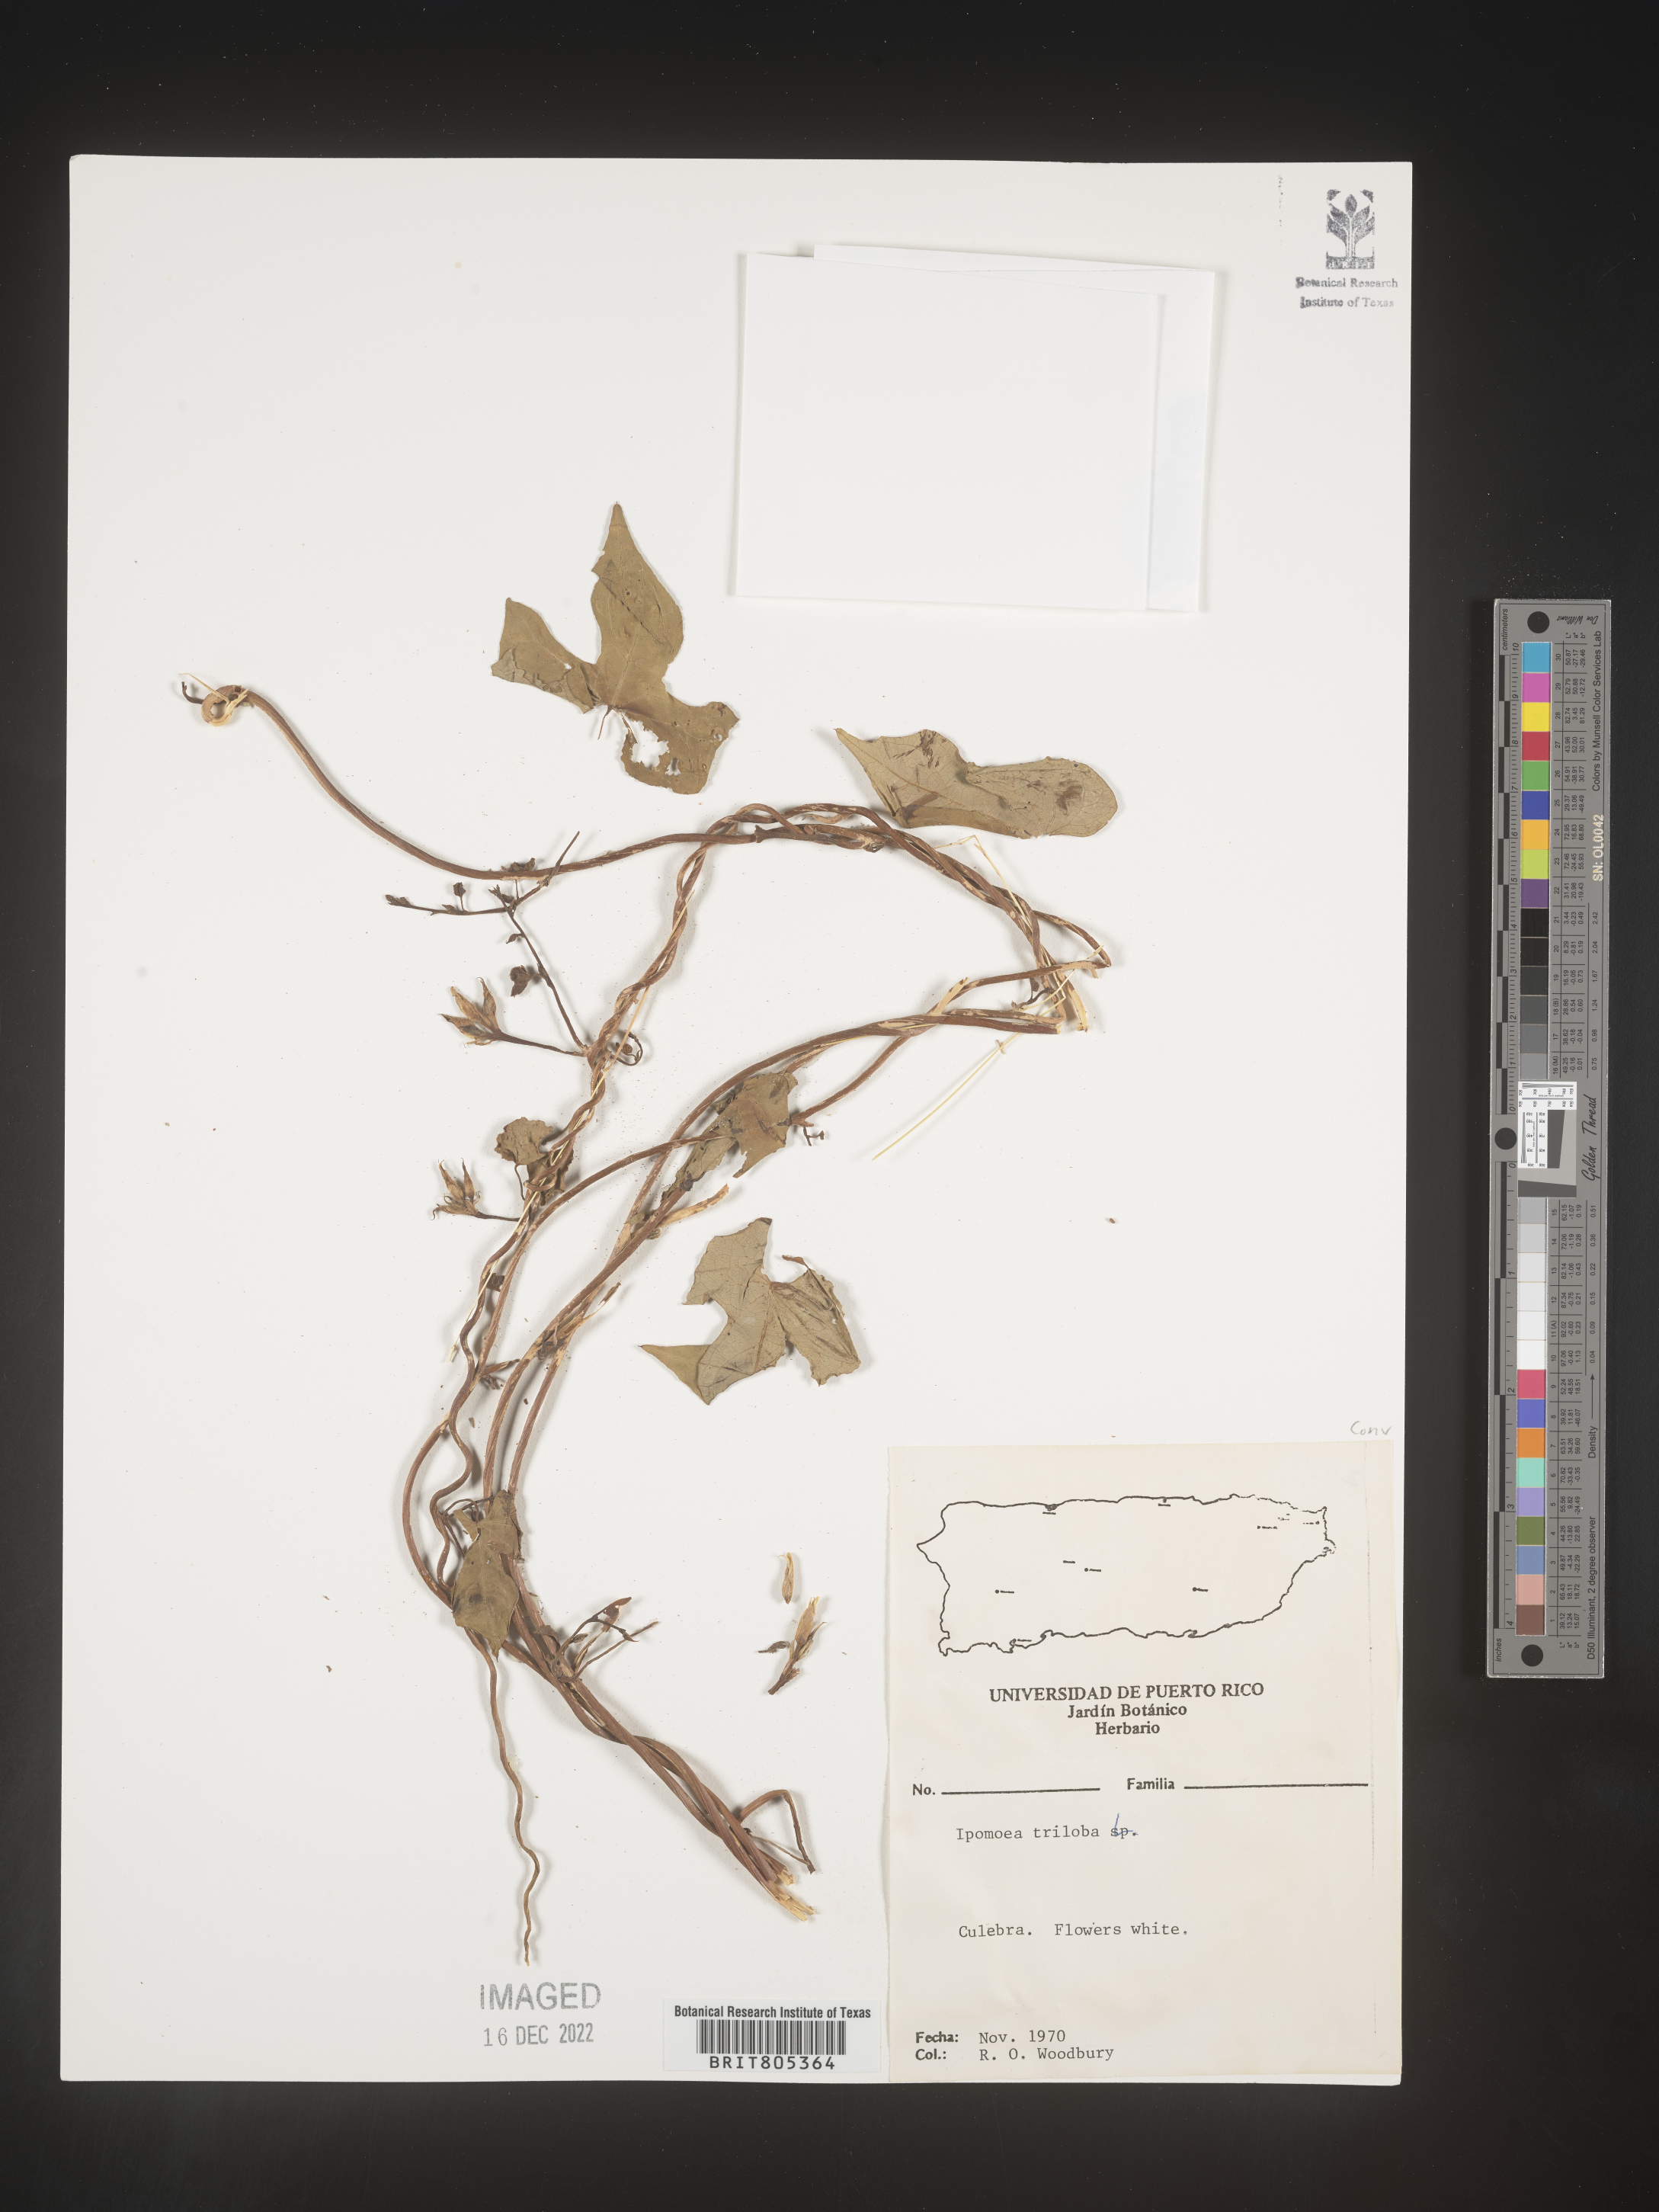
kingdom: Plantae
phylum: Tracheophyta
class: Magnoliopsida
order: Solanales
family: Convolvulaceae
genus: Ipomoea
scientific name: Ipomoea
